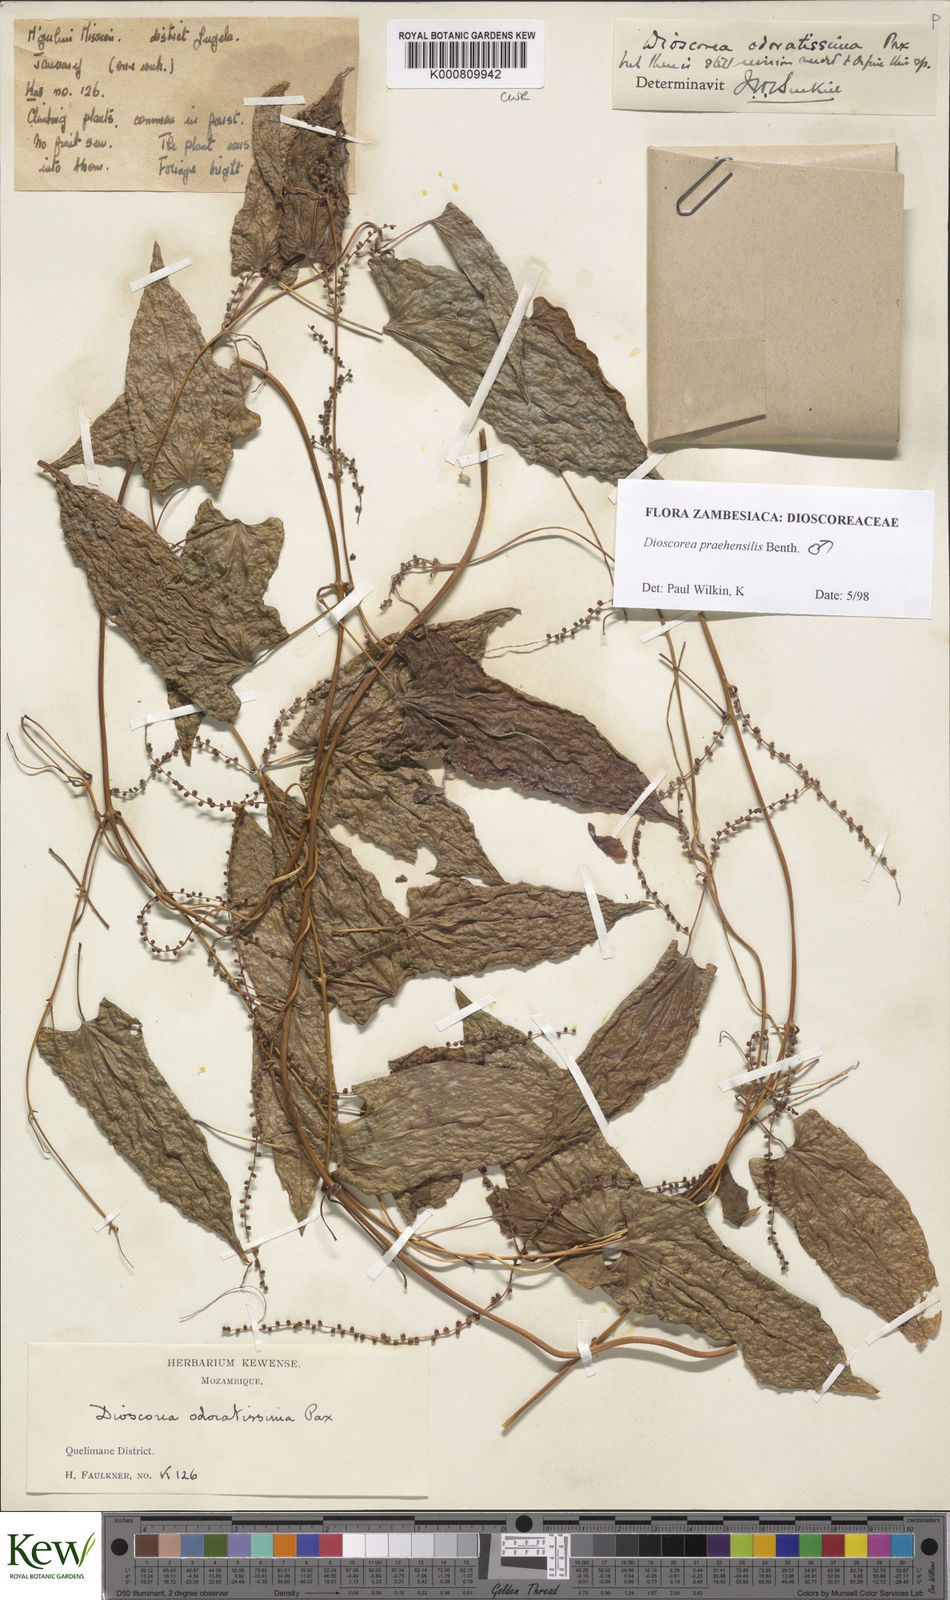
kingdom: Plantae
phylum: Tracheophyta
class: Liliopsida
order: Dioscoreales
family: Dioscoreaceae
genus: Dioscorea
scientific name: Dioscorea praehensilis
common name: Bush yam
